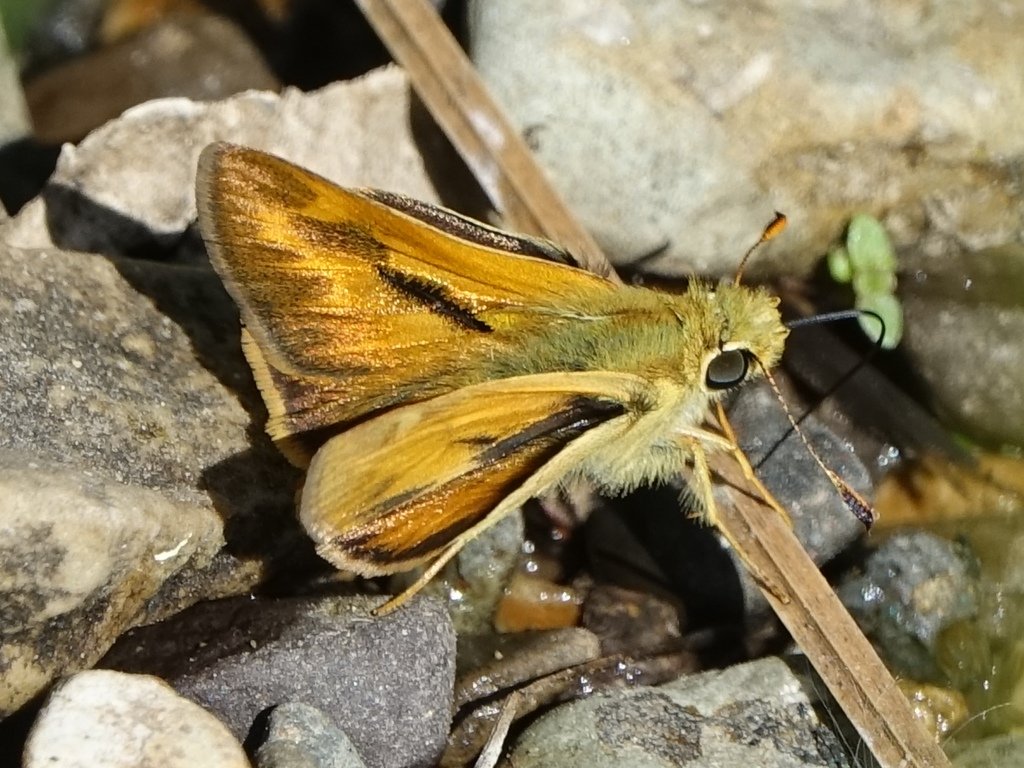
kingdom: Animalia
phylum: Arthropoda
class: Insecta
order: Lepidoptera
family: Hesperiidae
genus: Ochlodes
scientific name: Ochlodes sylvanoides
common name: Woodland Skipper
